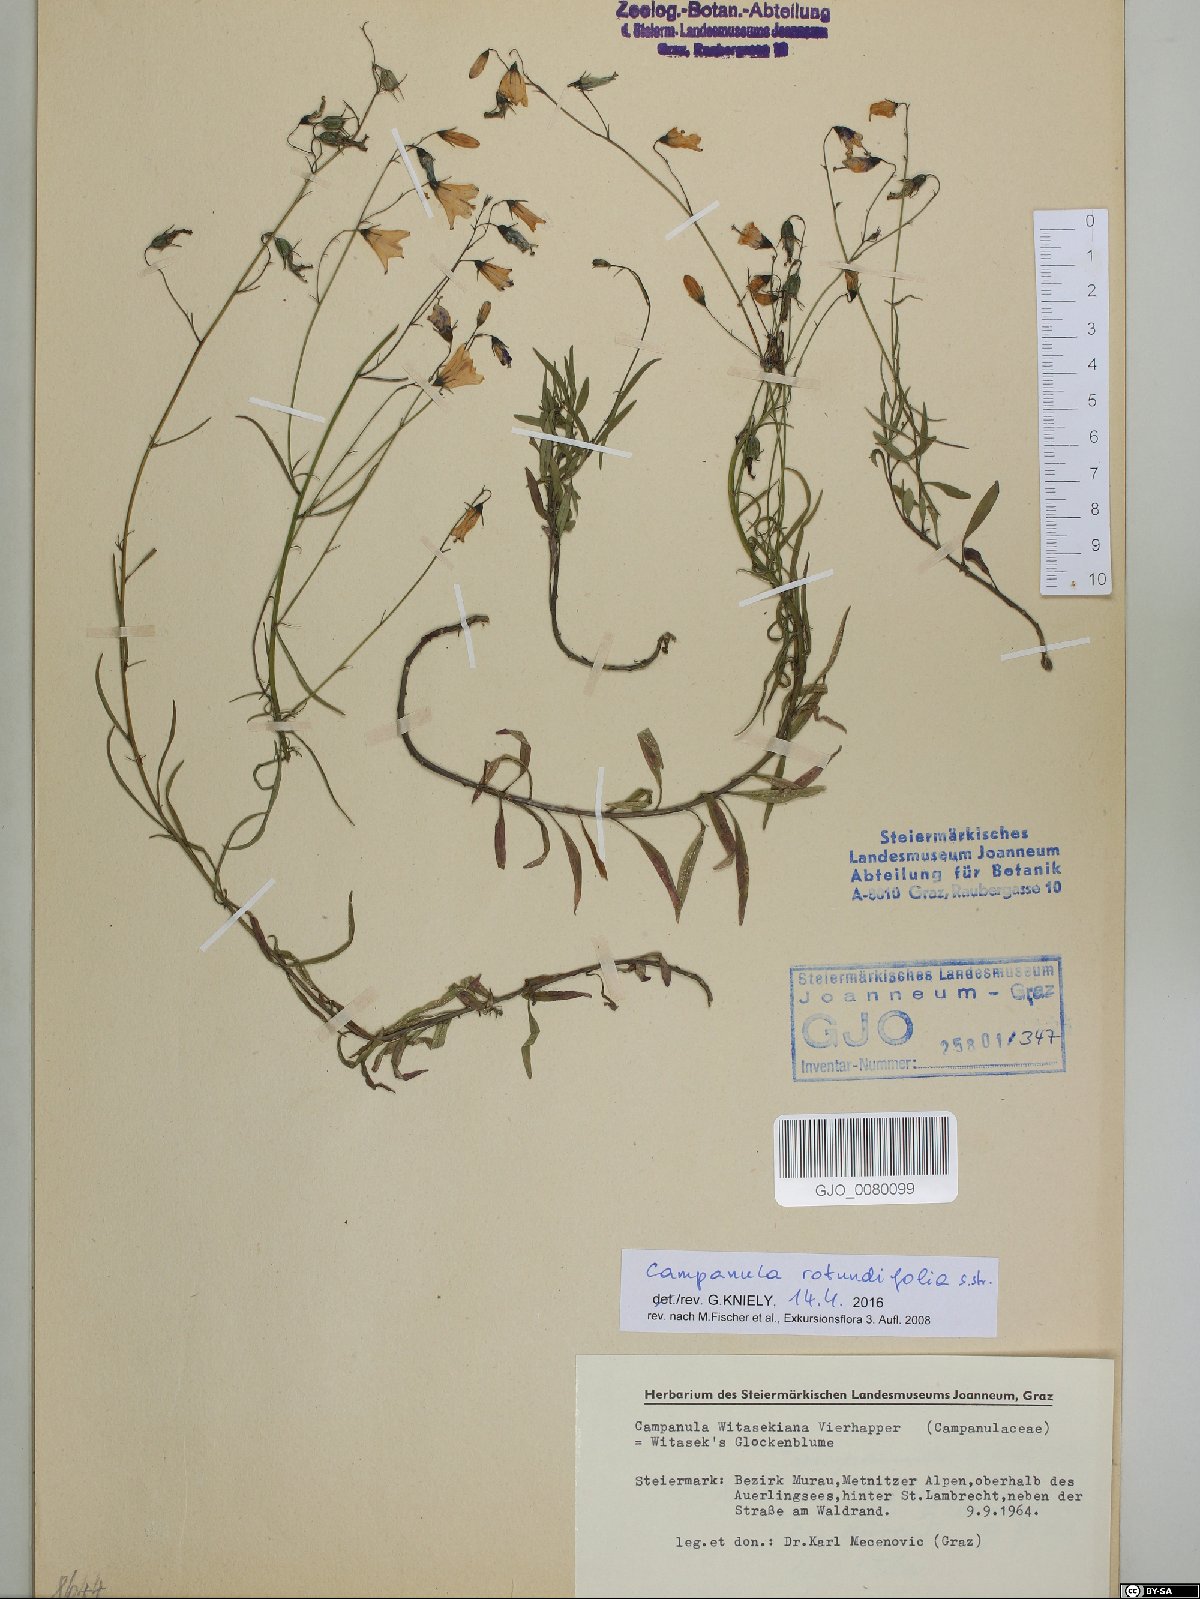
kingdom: Plantae
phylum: Tracheophyta
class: Magnoliopsida
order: Asterales
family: Campanulaceae
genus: Campanula
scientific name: Campanula rotundifolia
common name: Harebell
